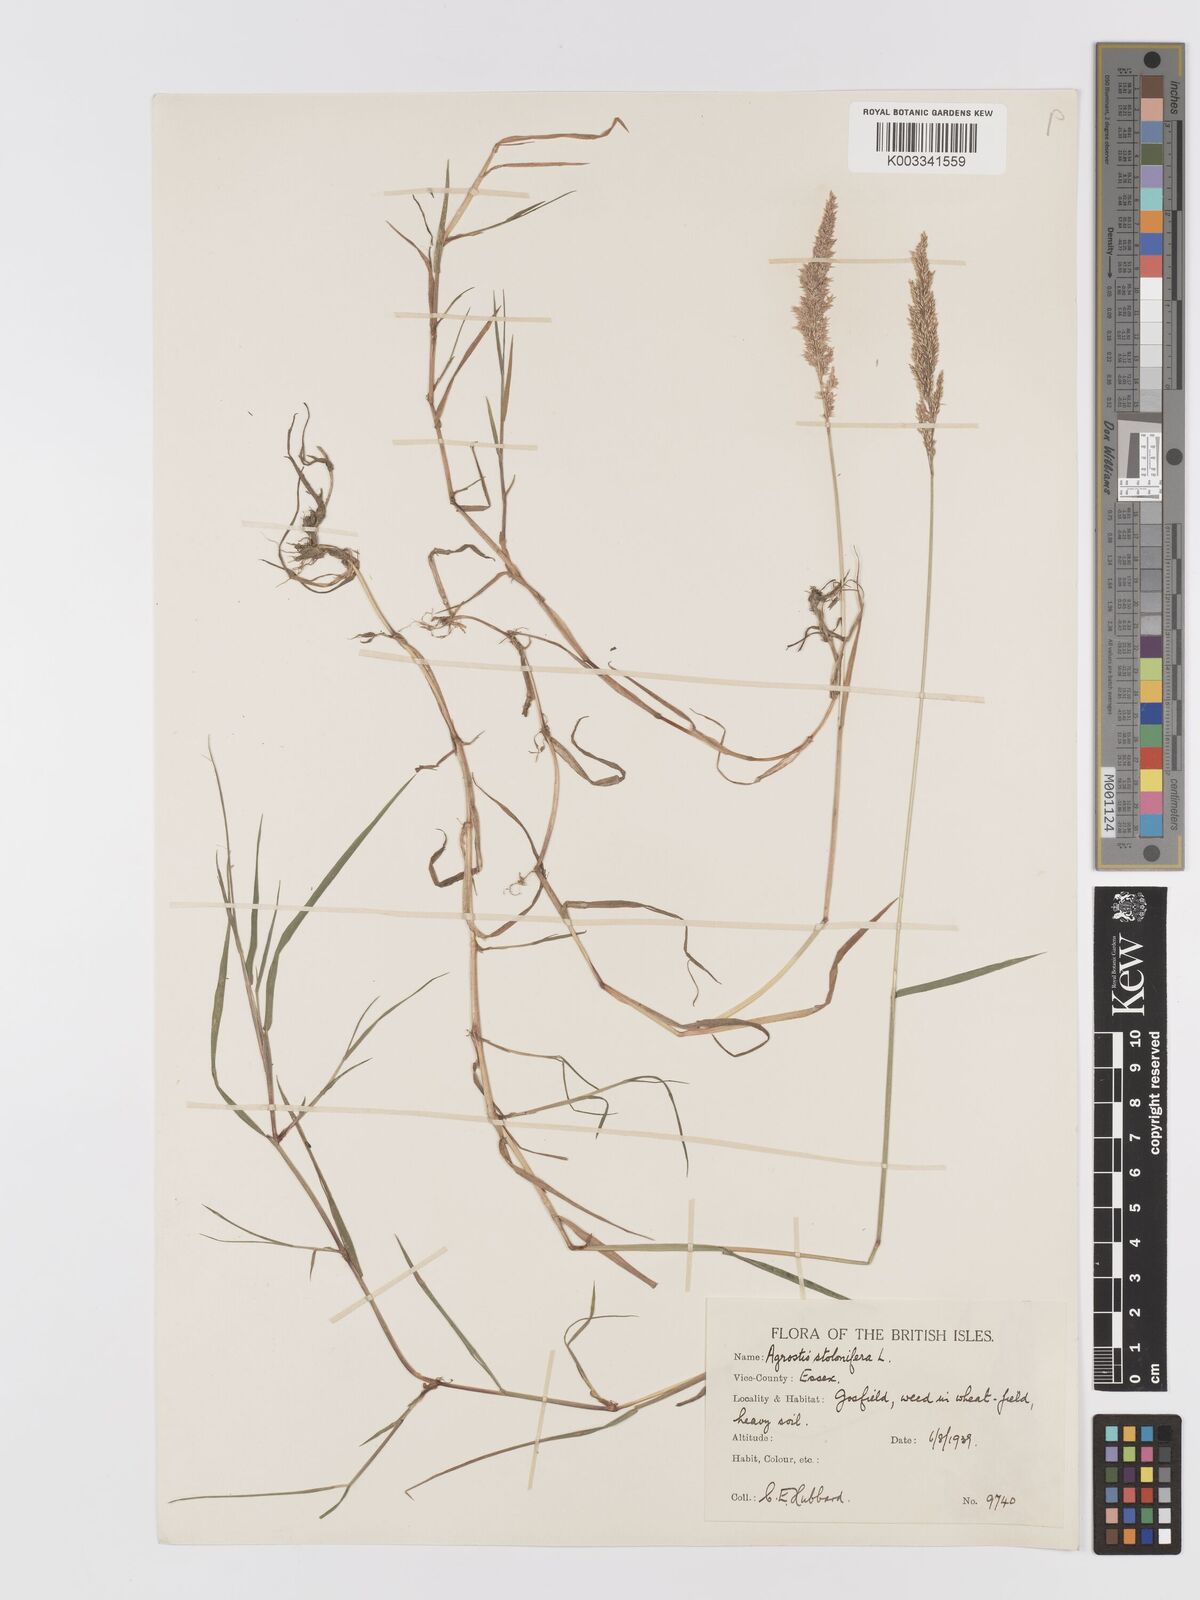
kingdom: Plantae
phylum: Tracheophyta
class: Liliopsida
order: Poales
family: Poaceae
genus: Agrostis
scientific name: Agrostis stolonifera
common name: Creeping bentgrass
